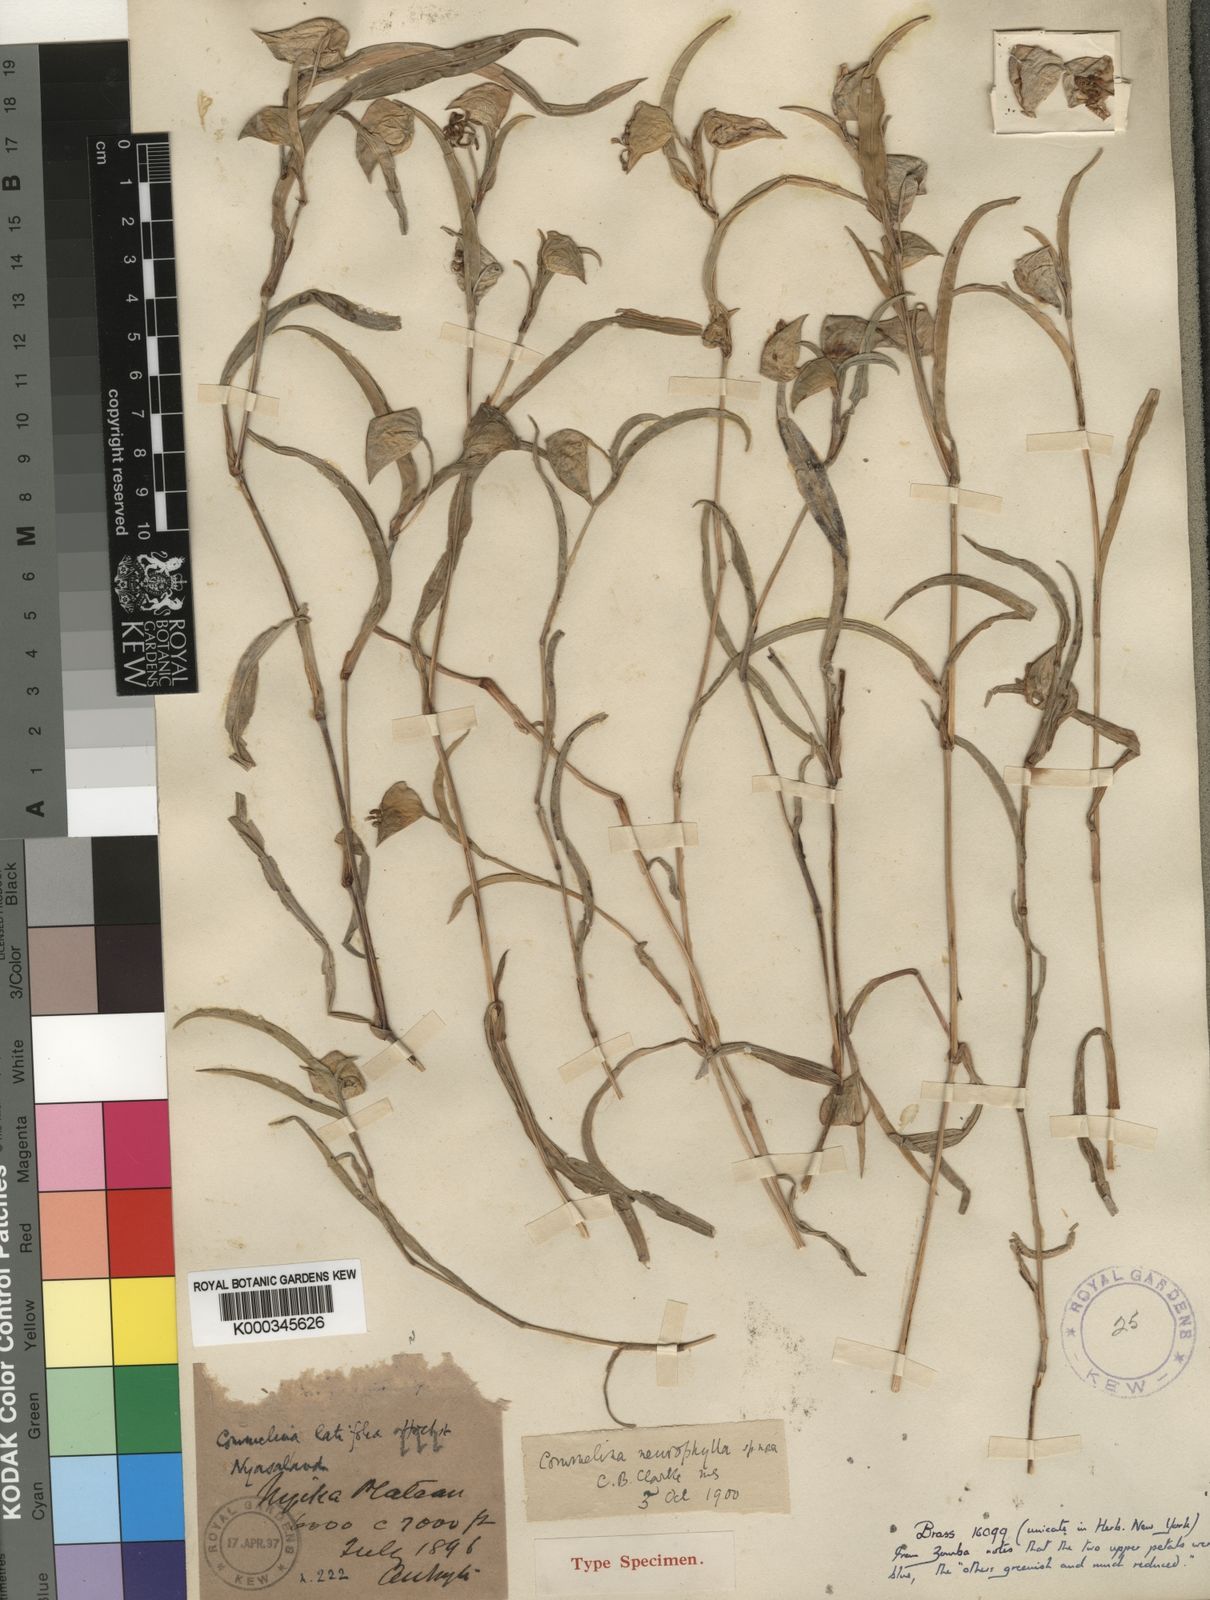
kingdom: Plantae
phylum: Tracheophyta
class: Liliopsida
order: Commelinales
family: Commelinaceae
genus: Commelina
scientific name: Commelina neurophylla
